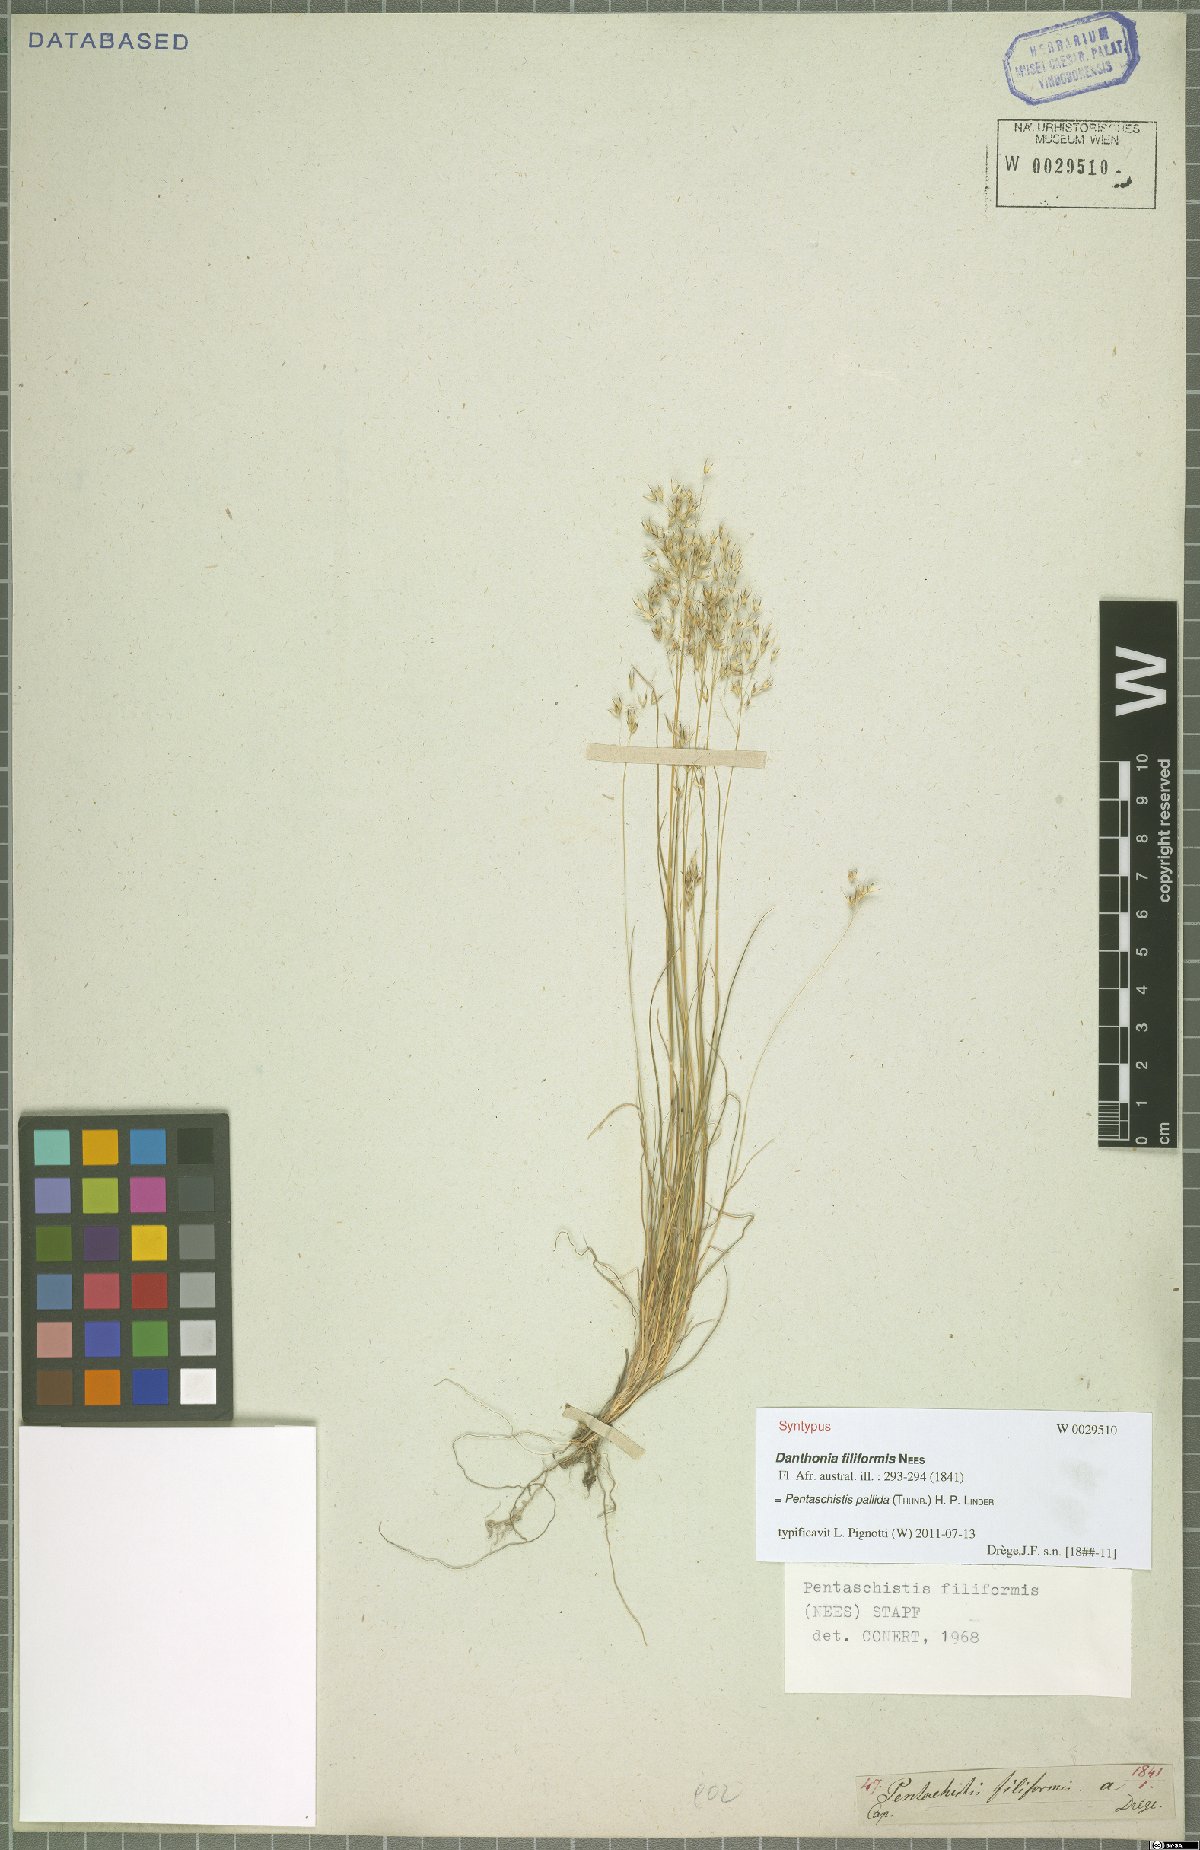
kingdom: Plantae
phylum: Tracheophyta
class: Liliopsida
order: Poales
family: Poaceae
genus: Pentameris
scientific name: Pentameris pallida
